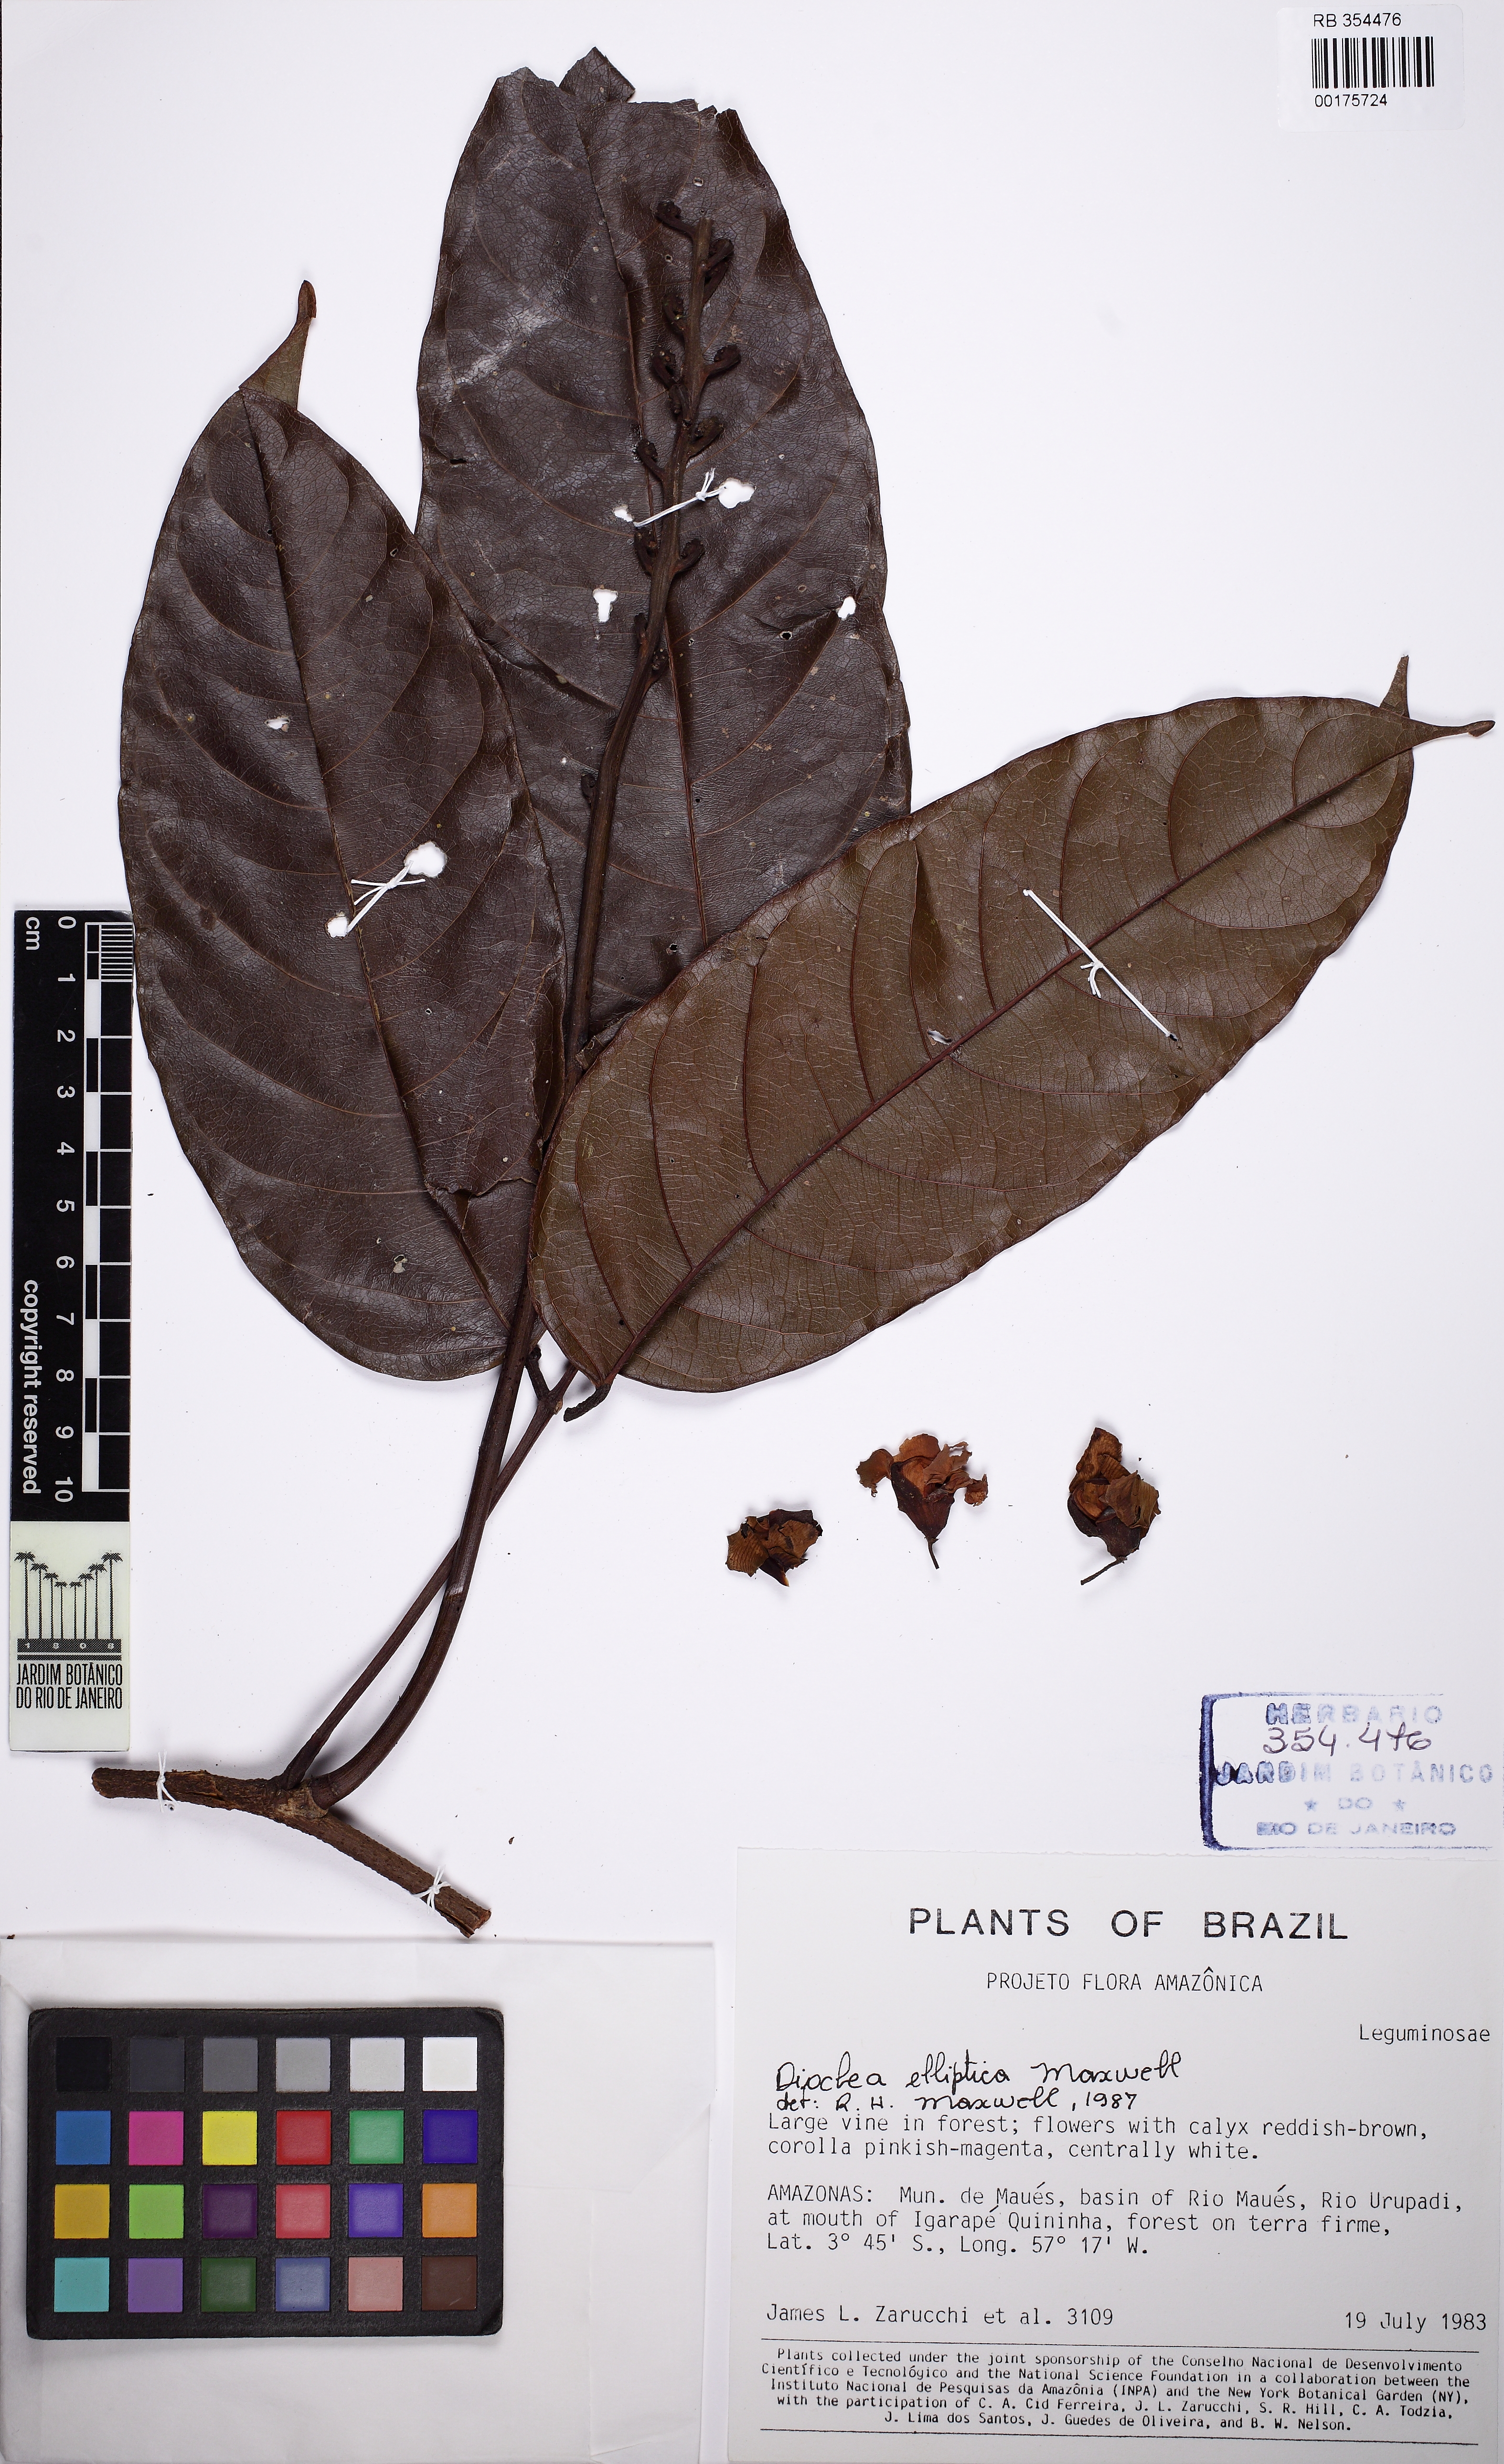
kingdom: Plantae
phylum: Tracheophyta
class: Magnoliopsida
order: Fabales
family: Fabaceae
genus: Macropsychanthus
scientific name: Macropsychanthus scaber
